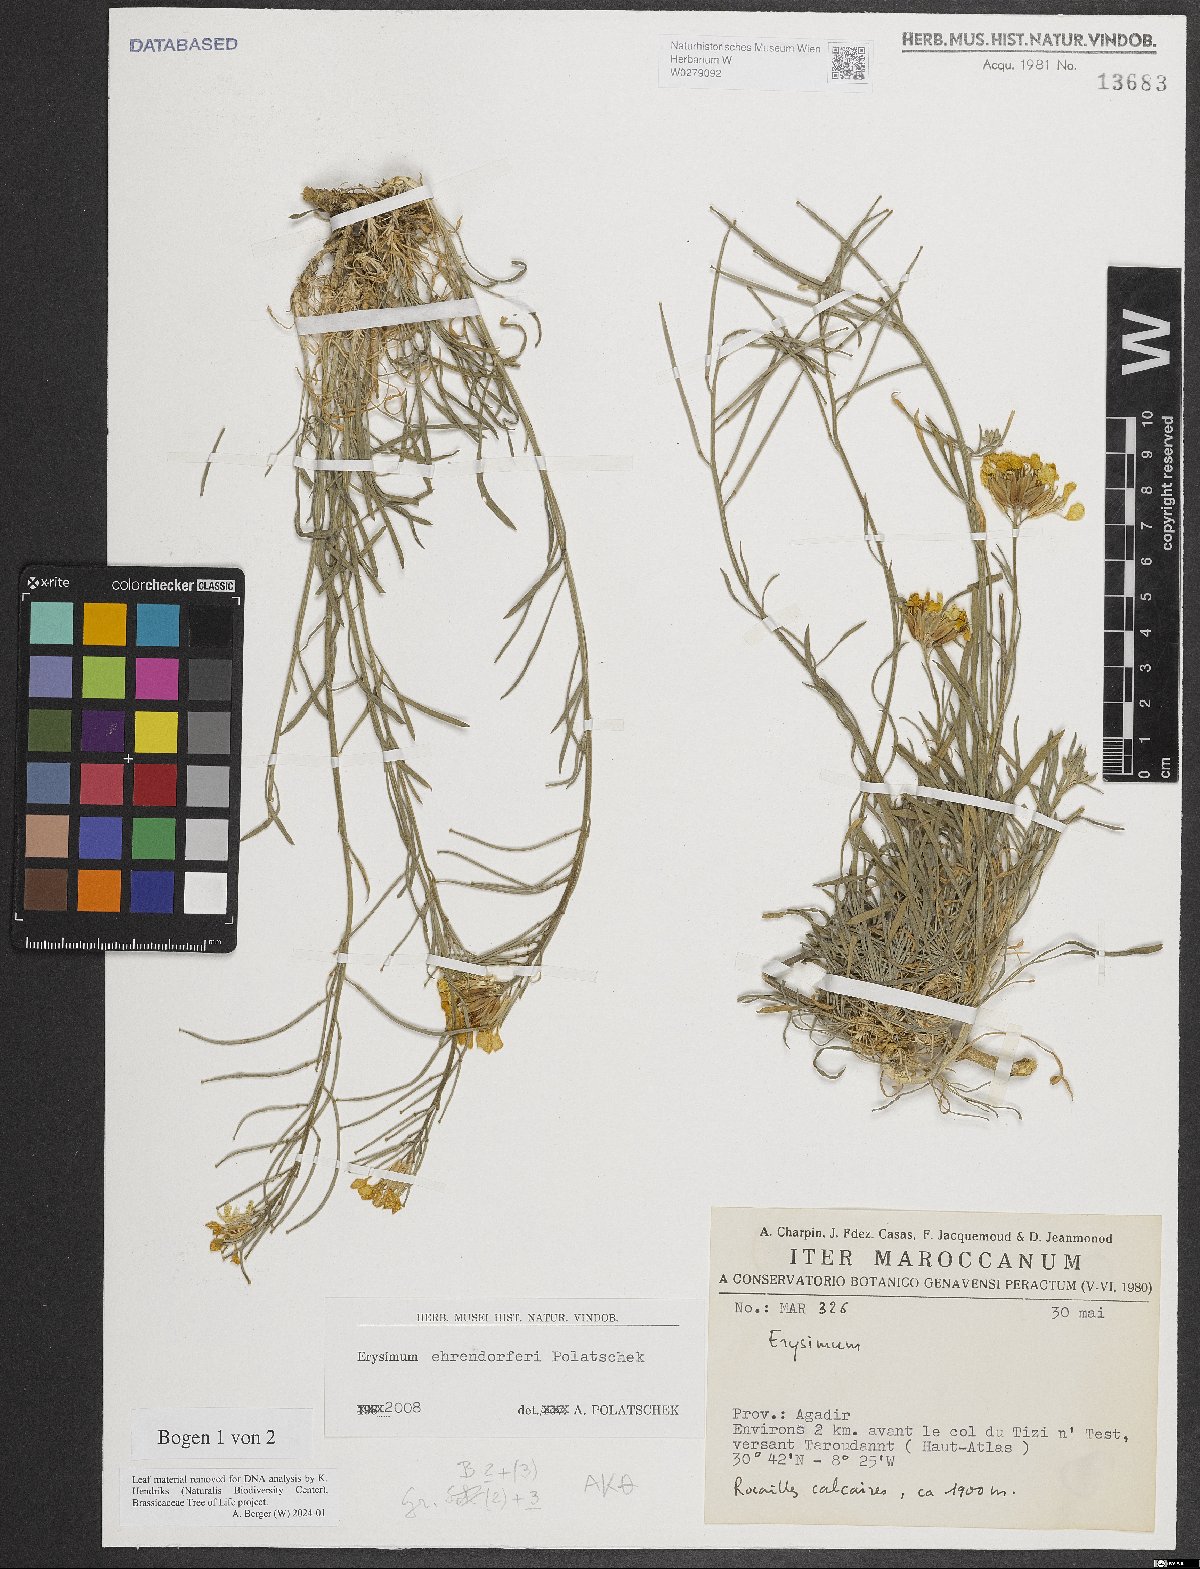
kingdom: Plantae
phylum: Tracheophyta
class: Magnoliopsida
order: Brassicales
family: Brassicaceae
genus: Erysimum
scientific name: Erysimum ehrendorferi
